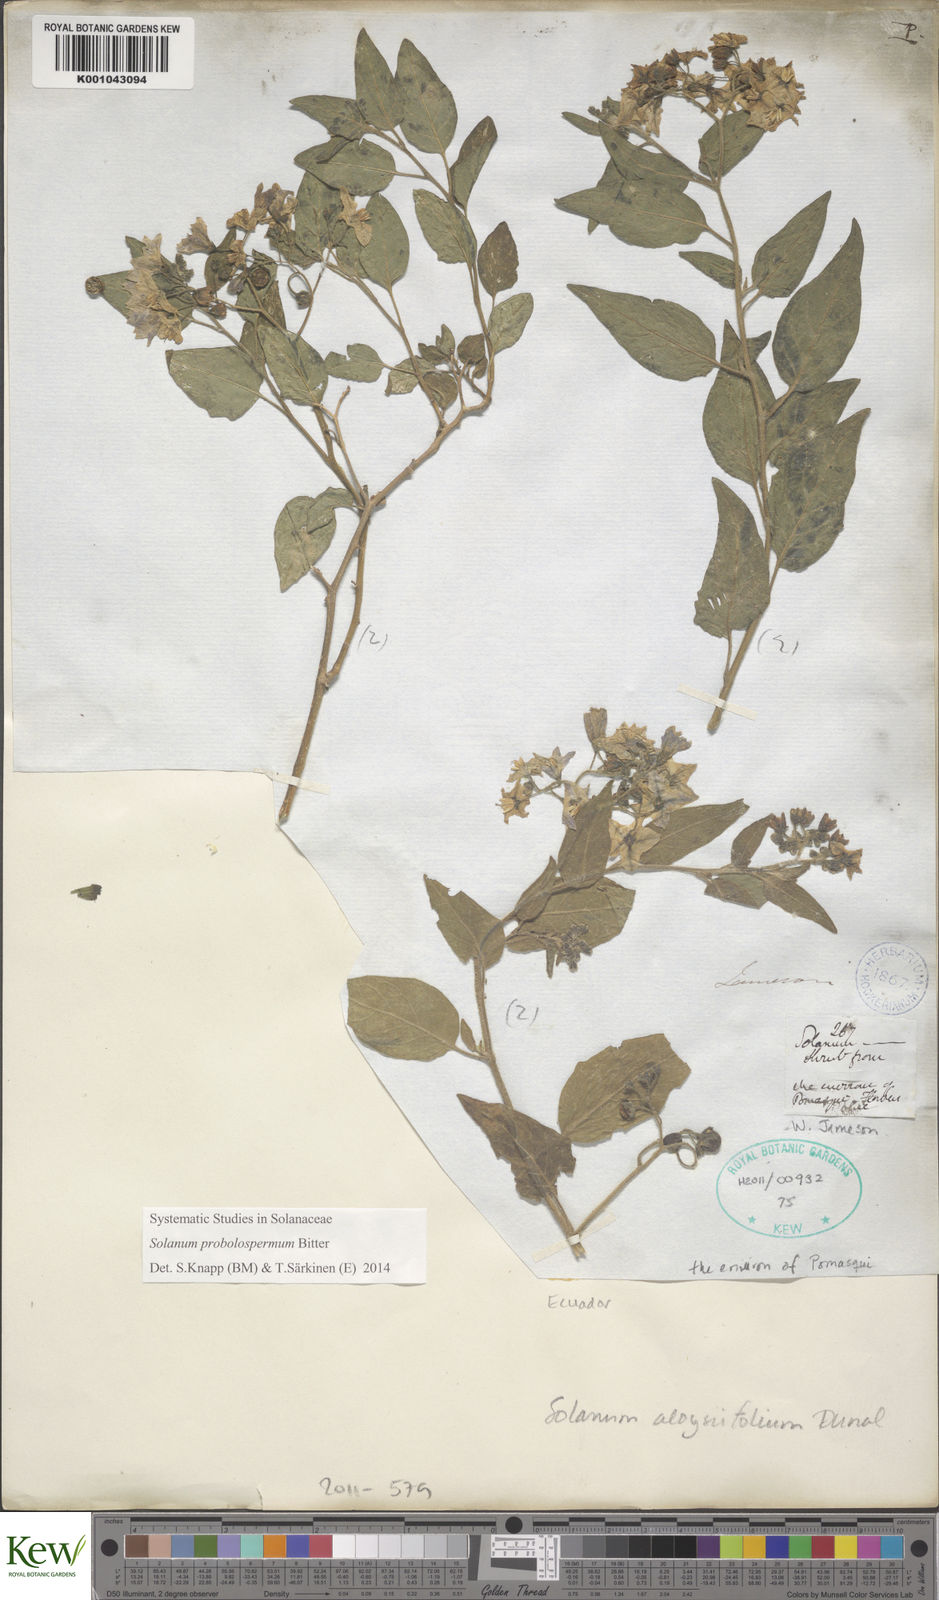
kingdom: Plantae
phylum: Tracheophyta
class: Magnoliopsida
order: Solanales
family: Solanaceae
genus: Solanum
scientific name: Solanum juninense
